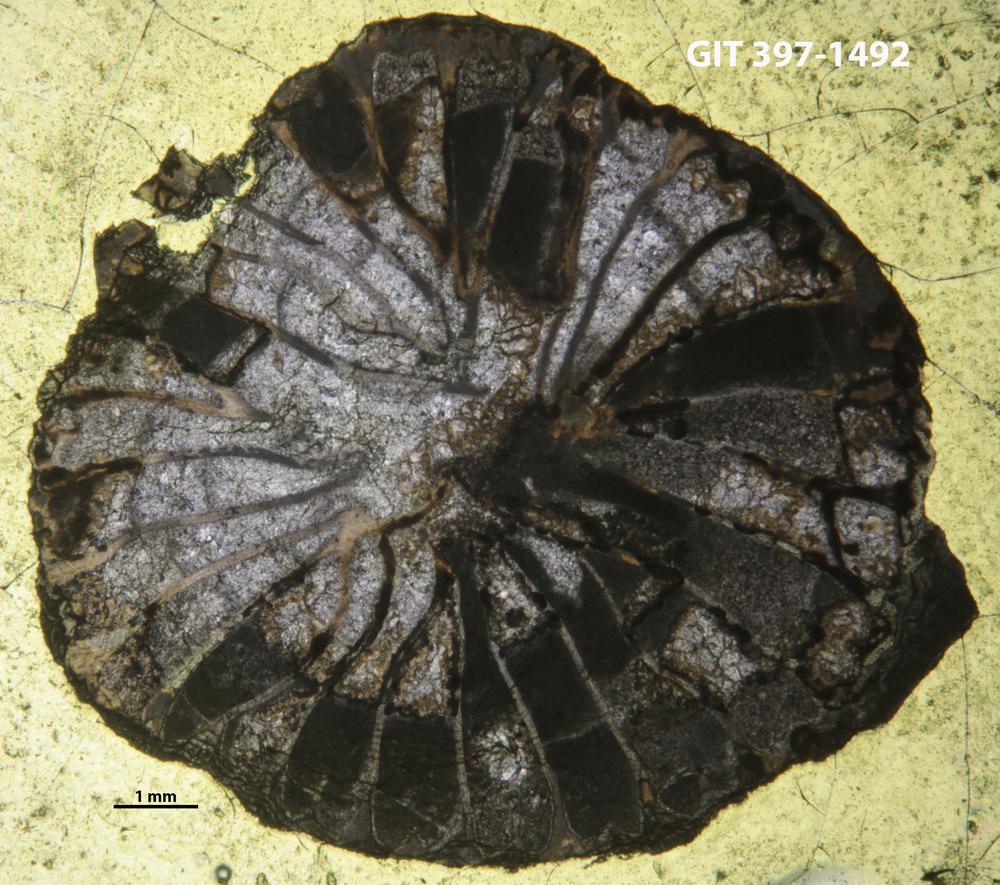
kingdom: Animalia
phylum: Cnidaria
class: Anthozoa
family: Streptelasmatidae
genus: Brachyelasma
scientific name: Brachyelasma estonicum
